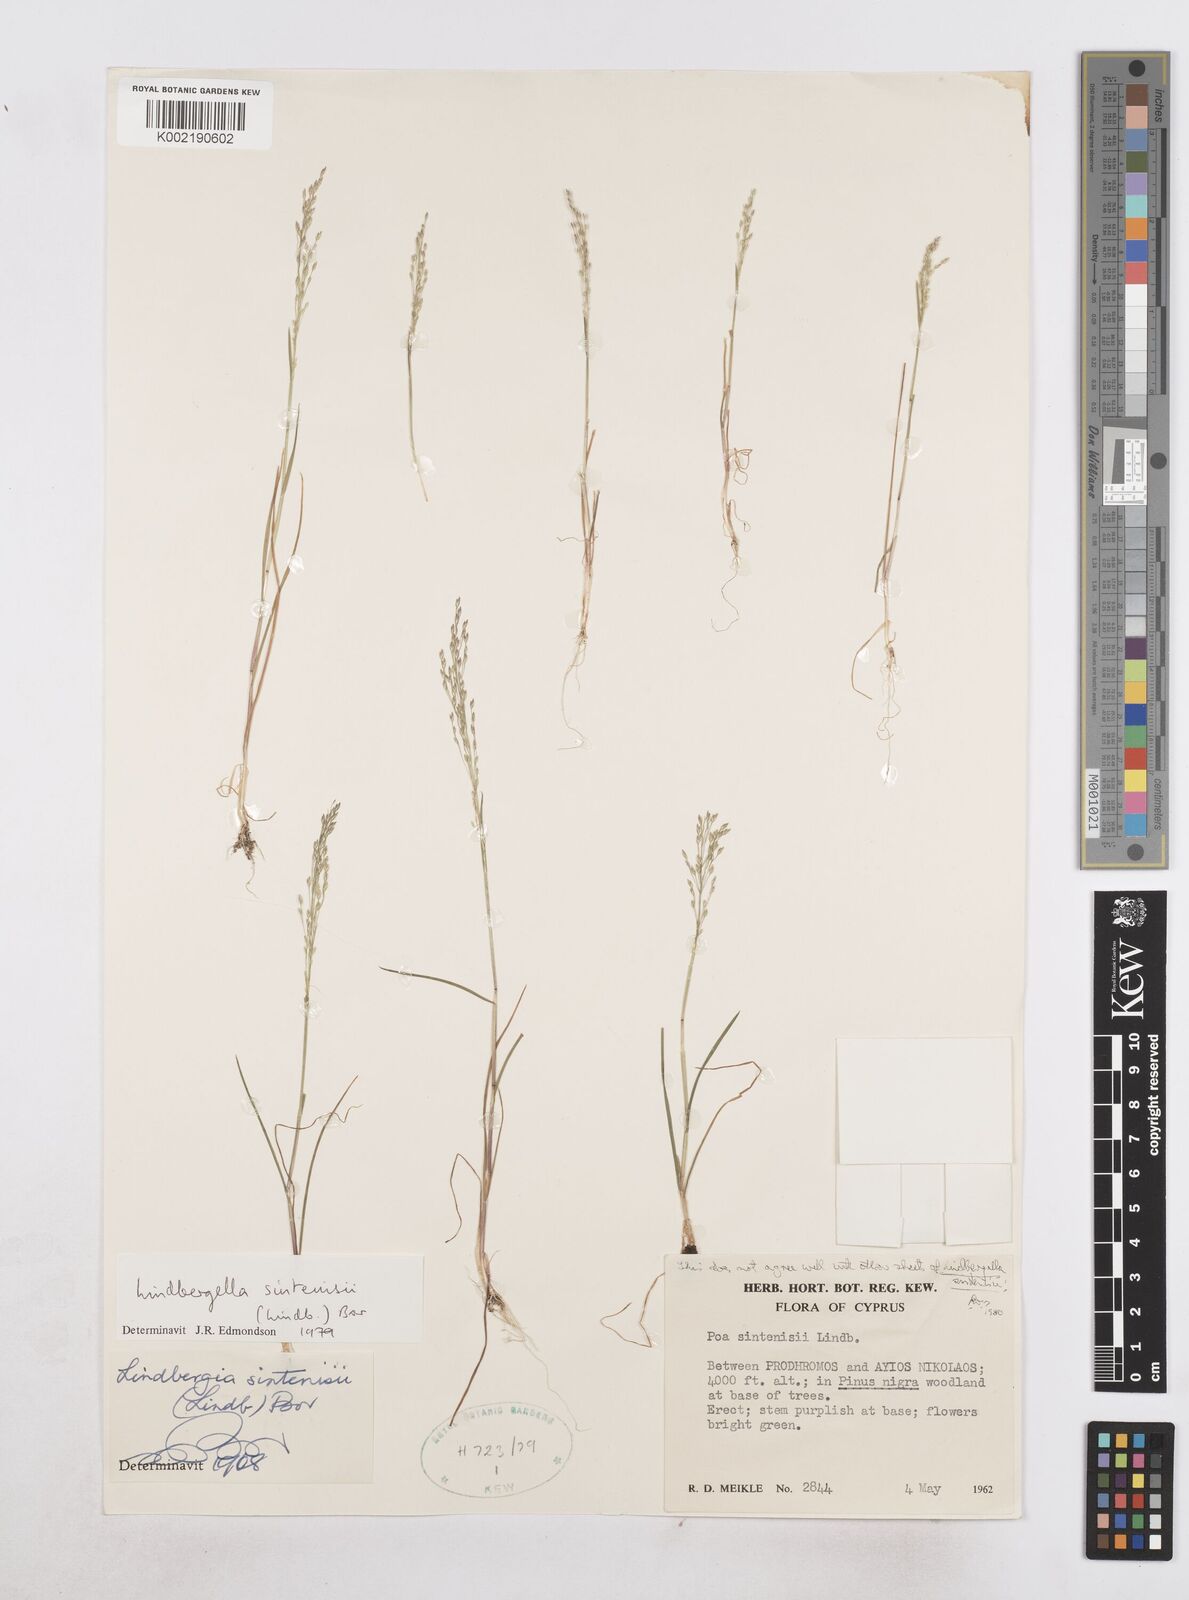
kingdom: Plantae
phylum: Tracheophyta
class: Liliopsida
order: Poales
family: Poaceae
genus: Poa
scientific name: Poa sintenisii
